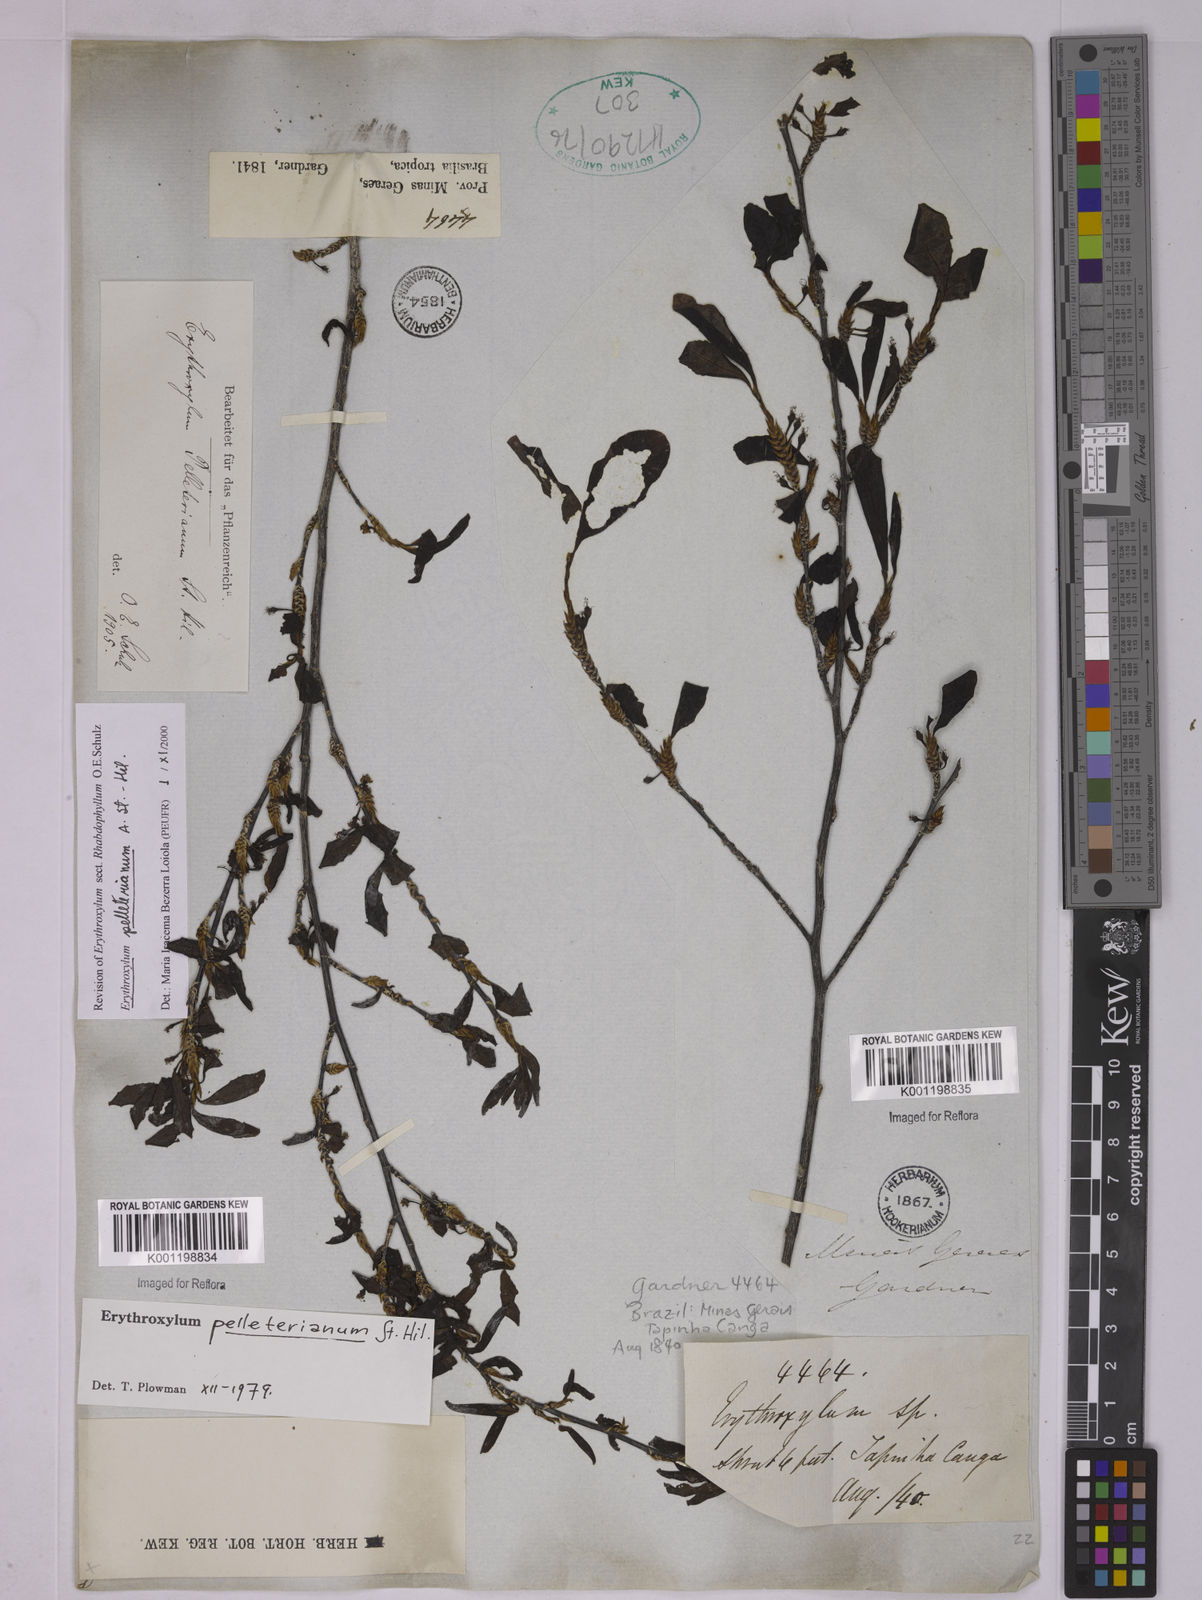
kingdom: Plantae
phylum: Tracheophyta
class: Magnoliopsida
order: Malpighiales
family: Erythroxylaceae
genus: Erythroxylum
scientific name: Erythroxylum pelleterianum
